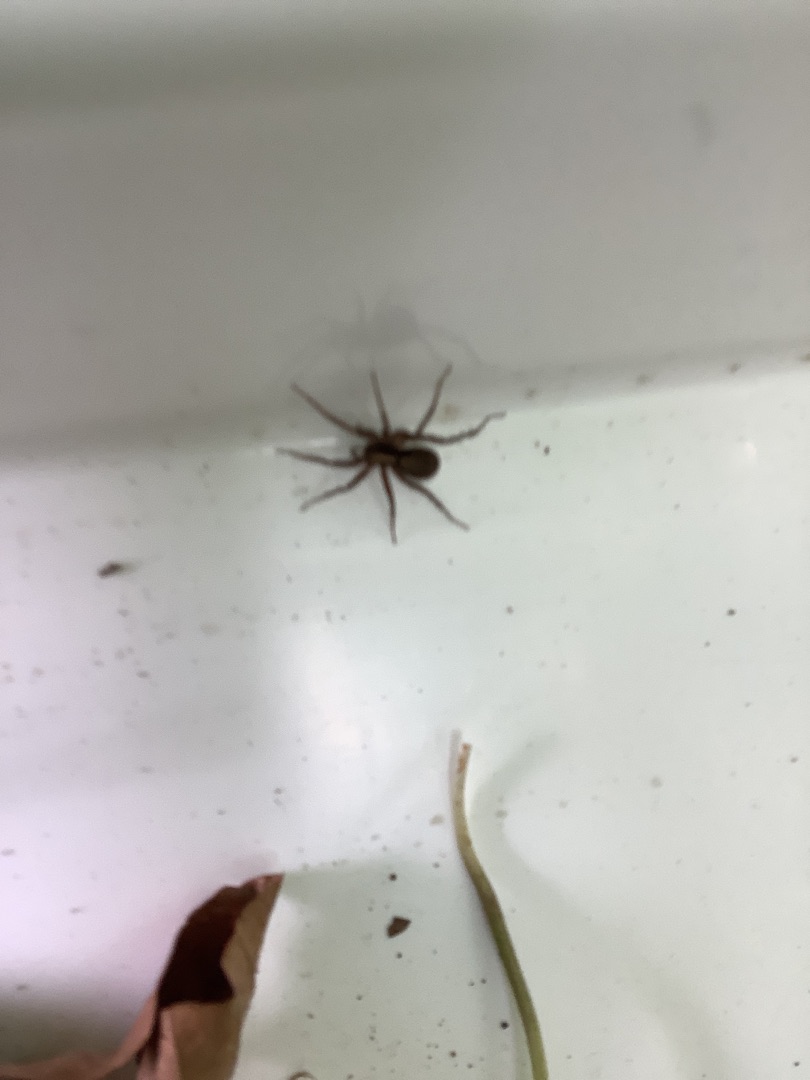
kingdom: Animalia
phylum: Arthropoda
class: Arachnida
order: Araneae
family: Lycosidae
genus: Pardosa
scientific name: Pardosa
